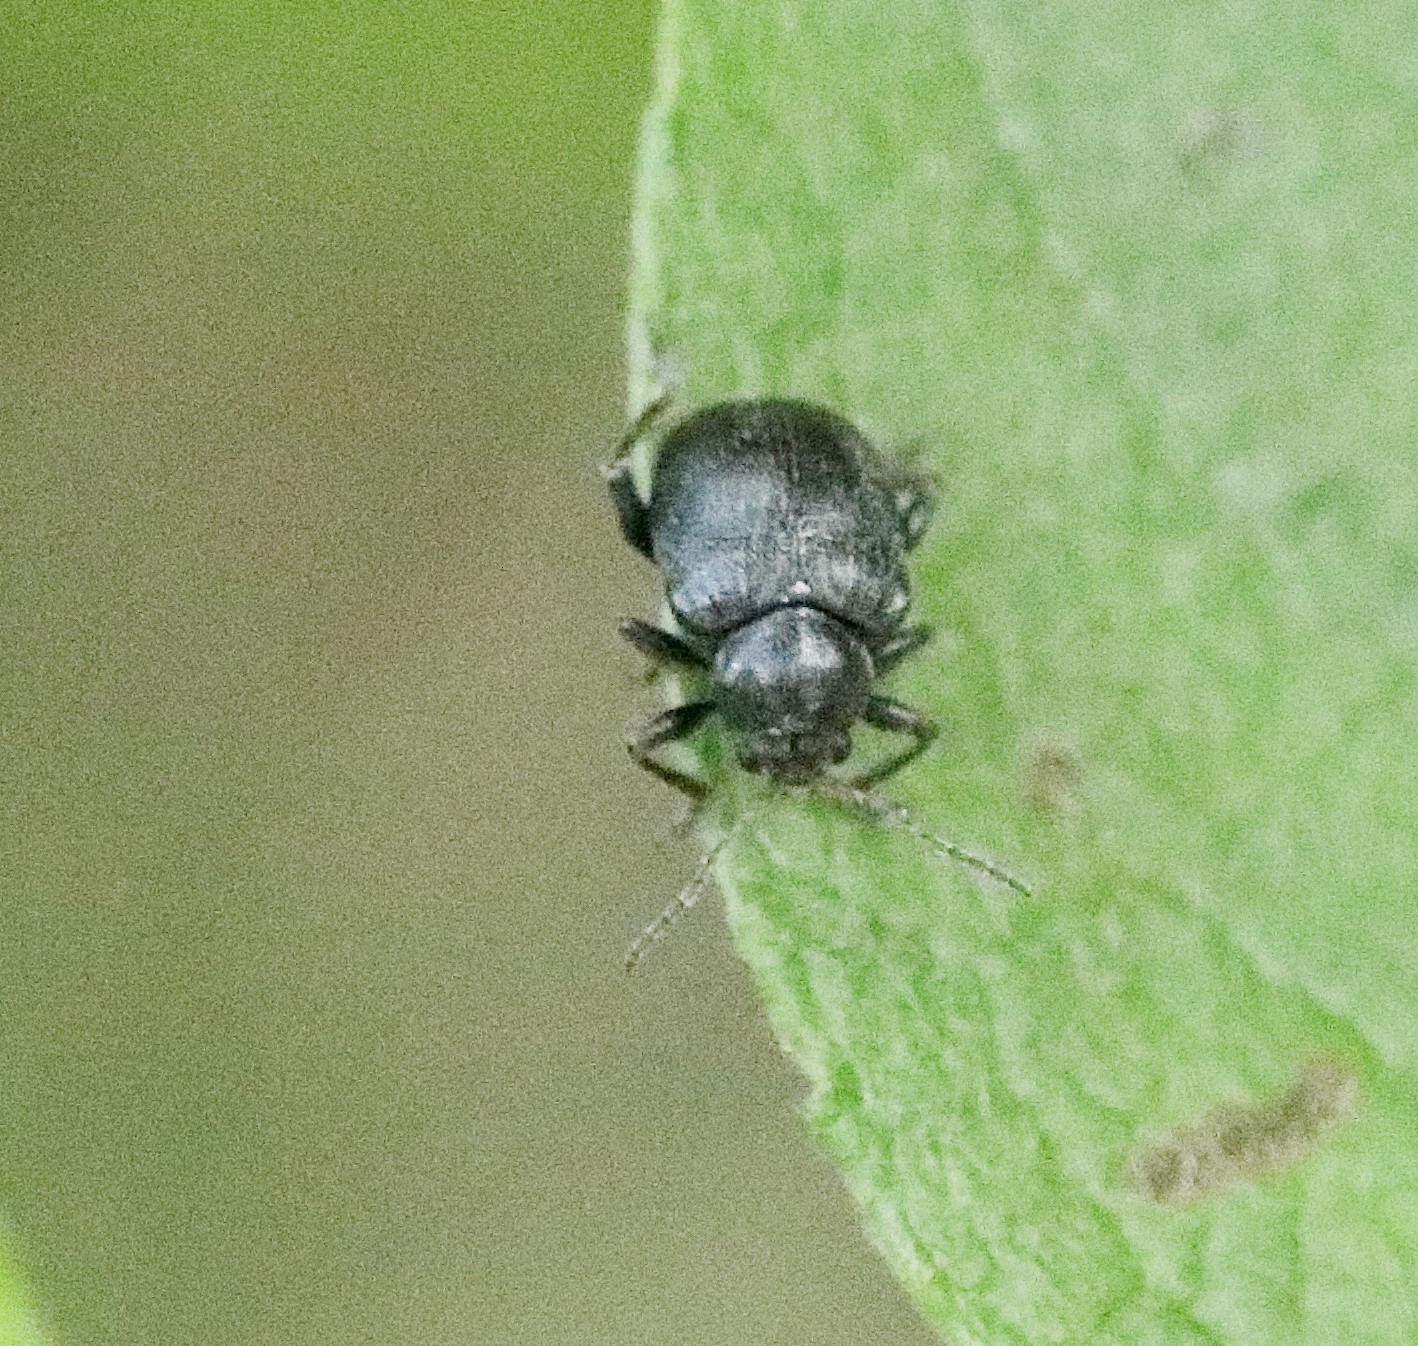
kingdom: Animalia
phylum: Arthropoda
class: Insecta
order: Coleoptera
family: Chrysomelidae
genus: Bromius
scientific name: Bromius obscurus
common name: Gederamsbille
